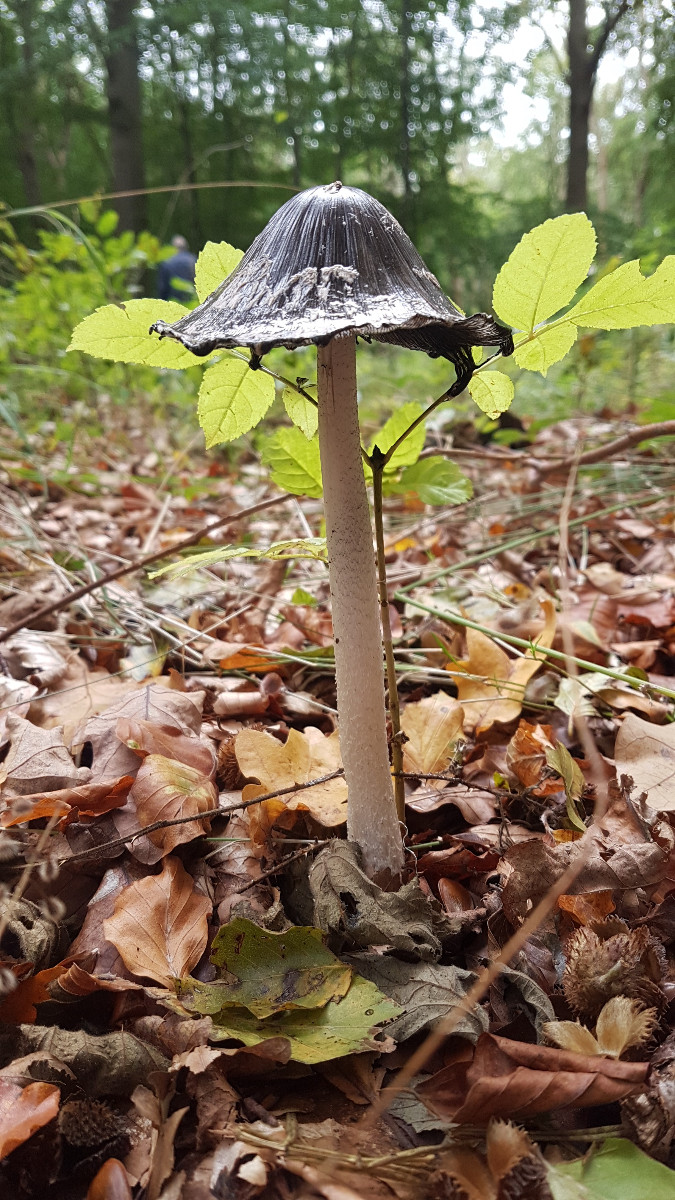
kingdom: Fungi
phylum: Basidiomycota
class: Agaricomycetes
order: Agaricales
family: Psathyrellaceae
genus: Coprinopsis
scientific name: Coprinopsis picacea
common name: skade-blækhat
